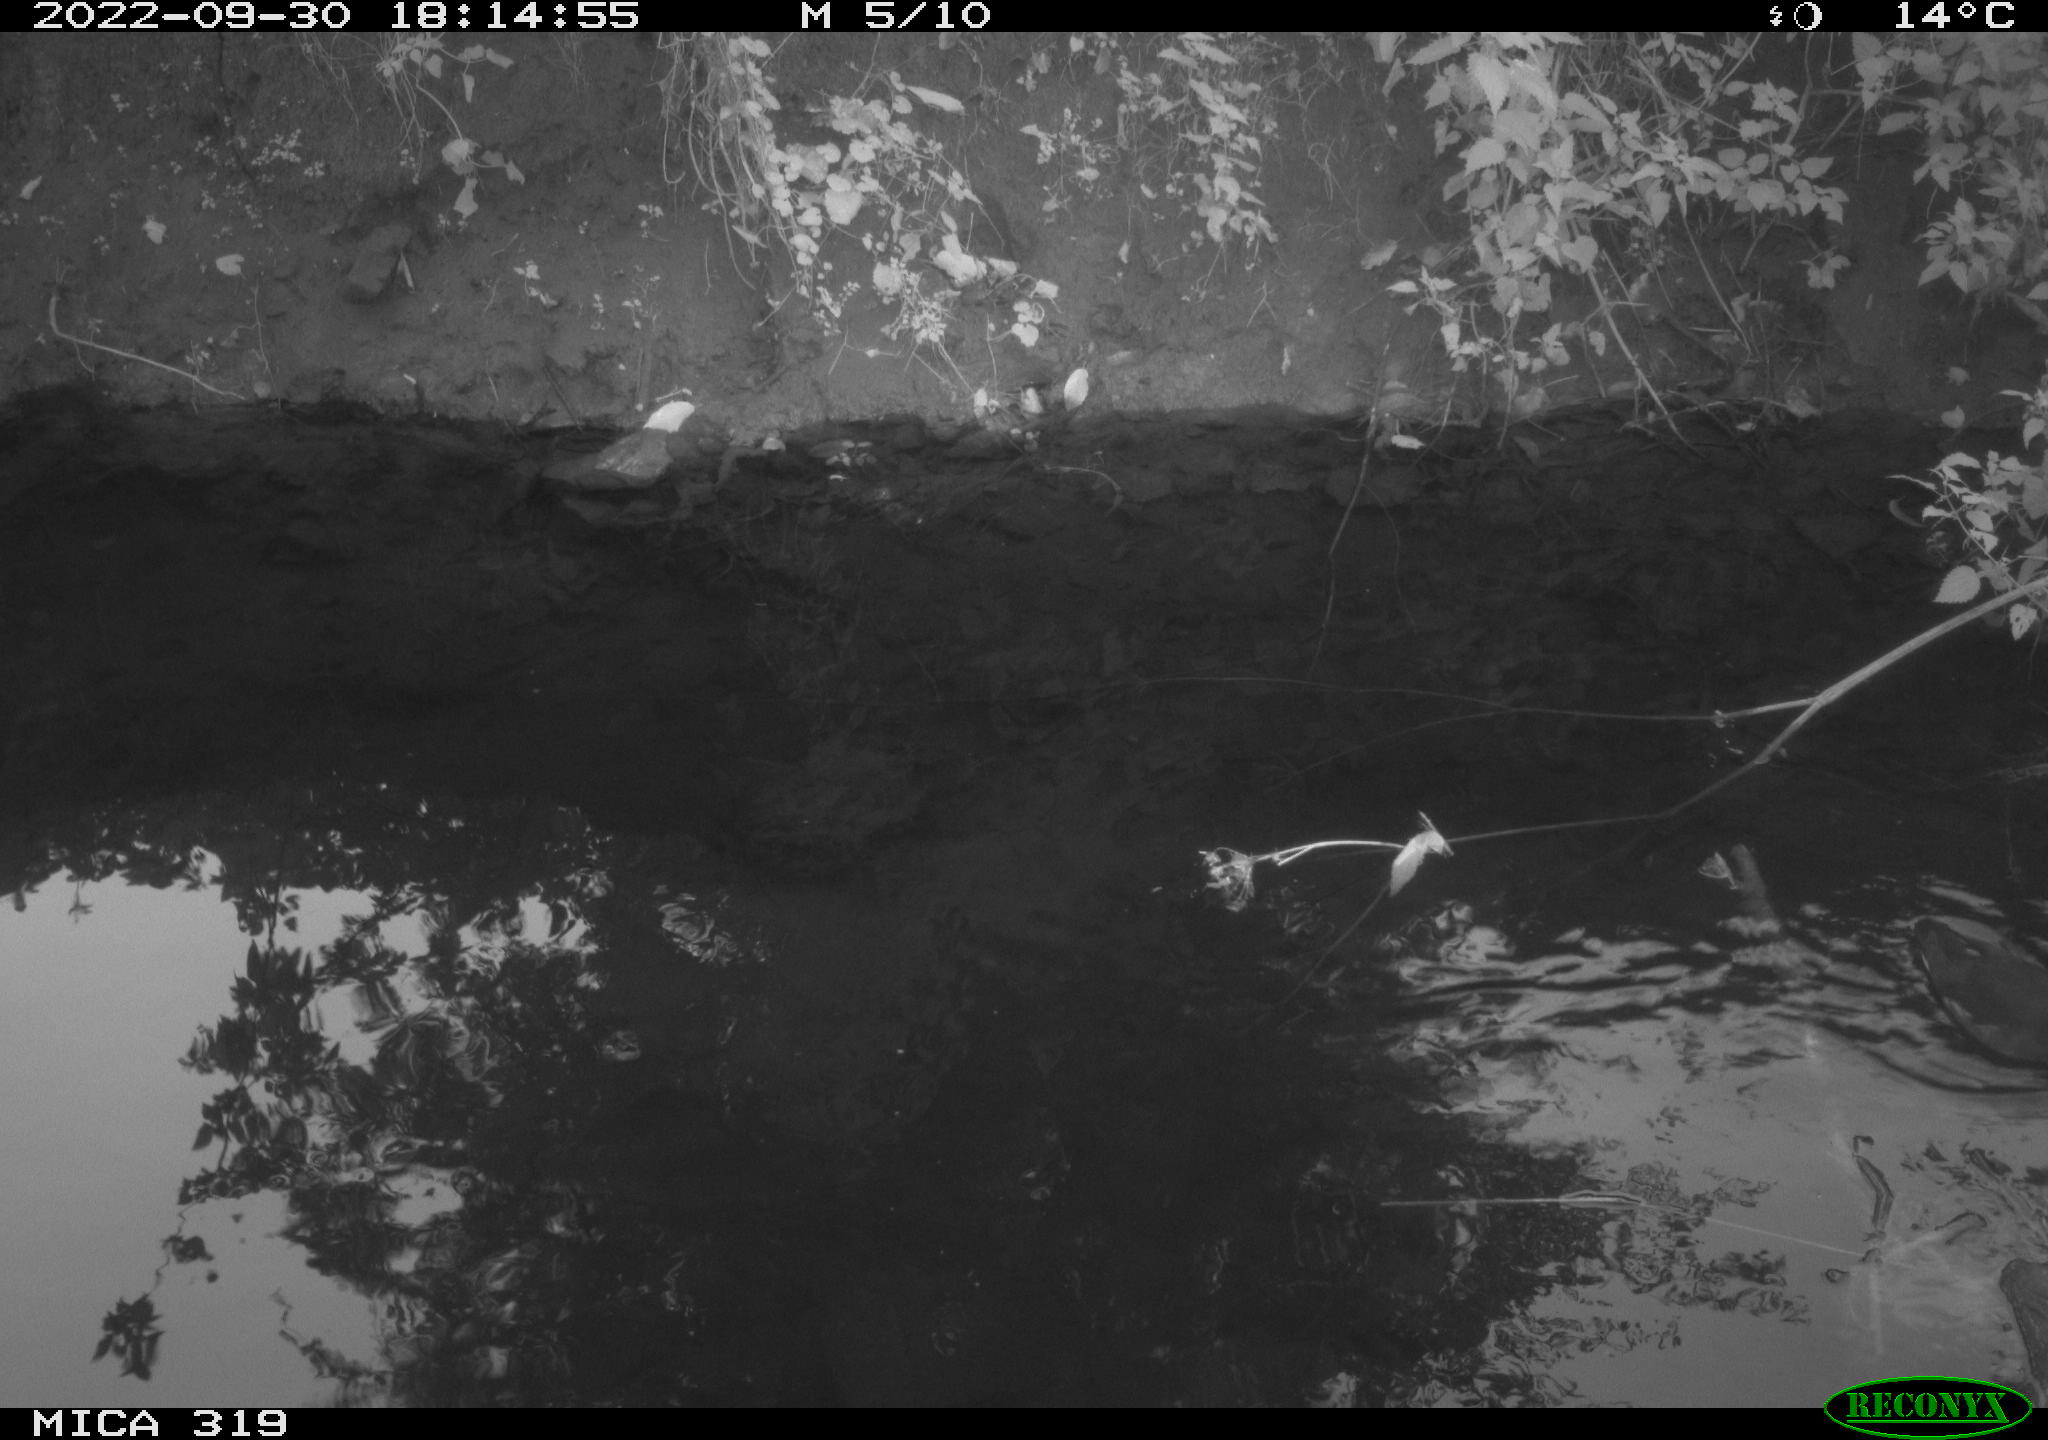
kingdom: Animalia
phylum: Chordata
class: Aves
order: Gruiformes
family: Rallidae
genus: Gallinula
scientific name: Gallinula chloropus
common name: Common moorhen
